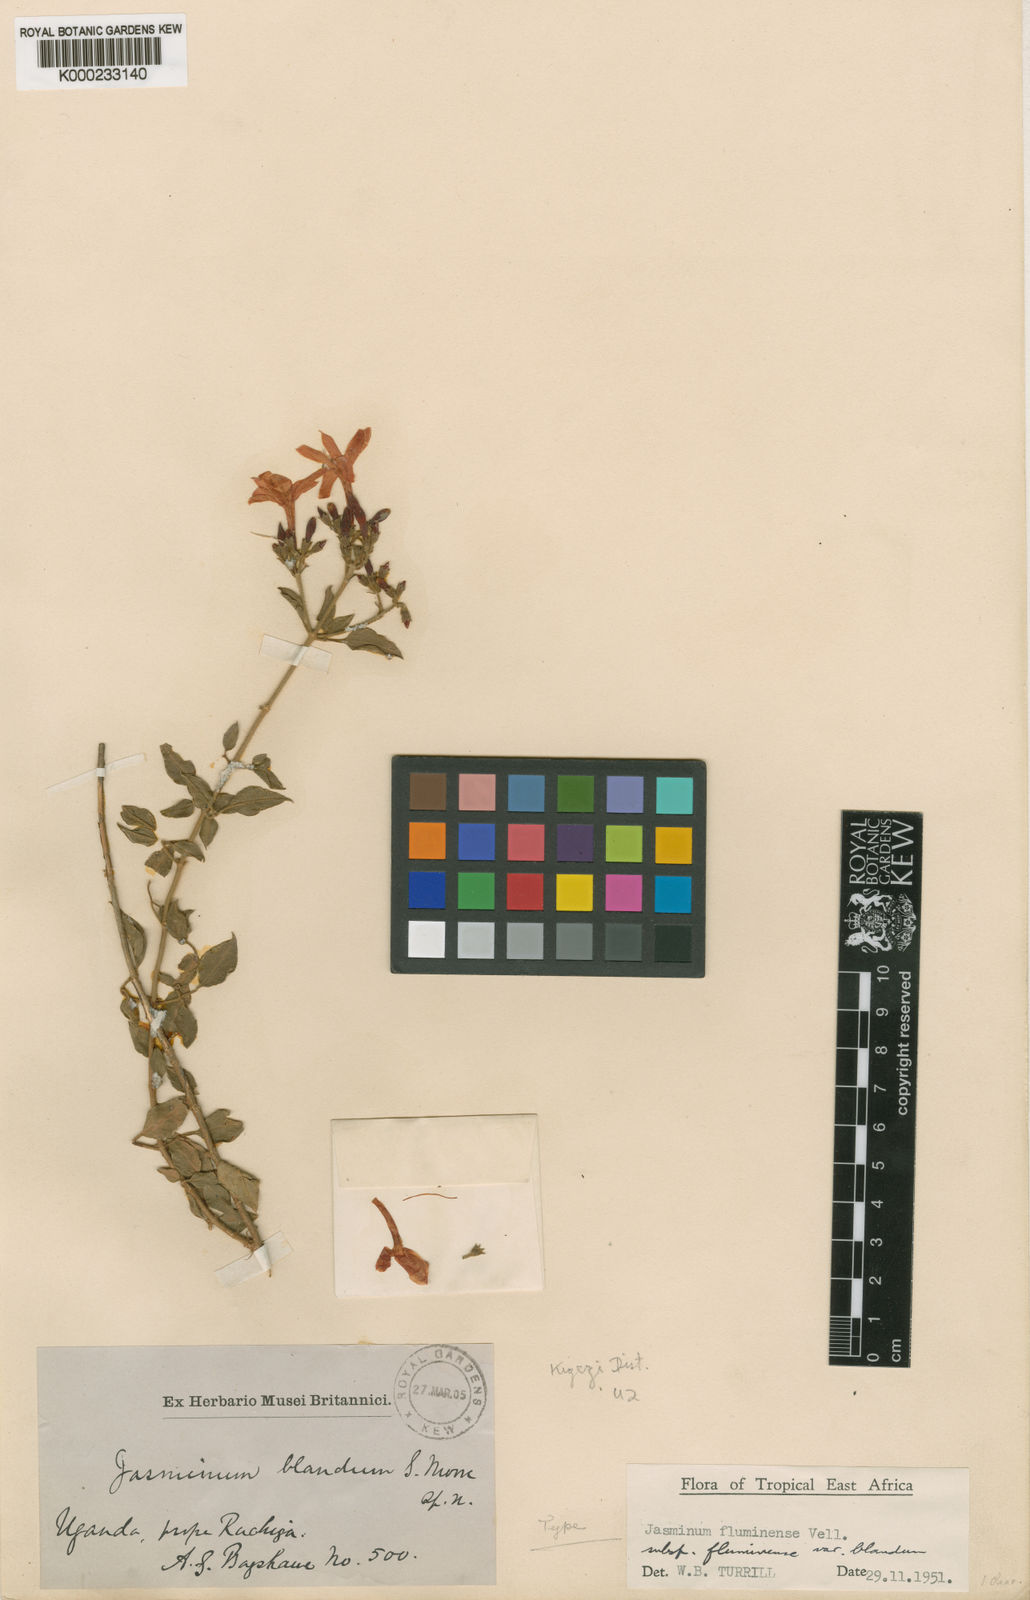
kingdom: Plantae
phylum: Tracheophyta
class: Magnoliopsida
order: Lamiales
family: Oleaceae
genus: Jasminum
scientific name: Jasminum fluminense
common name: Brazilian jasmine
